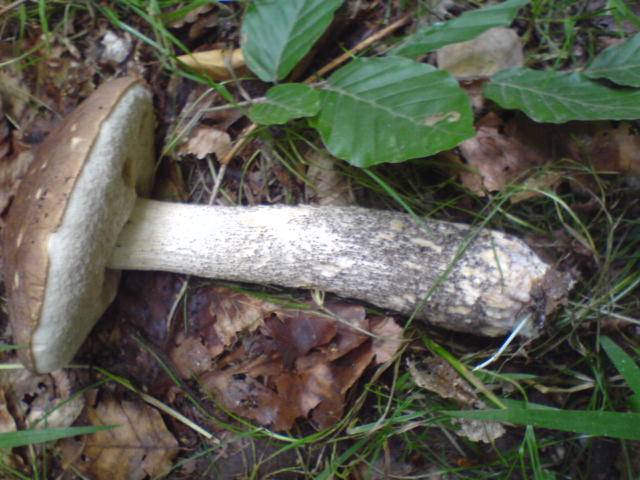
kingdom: Fungi
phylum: Basidiomycota
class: Agaricomycetes
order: Boletales
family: Boletaceae
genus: Leccinum
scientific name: Leccinum scabrum
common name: brun skælrørhat
